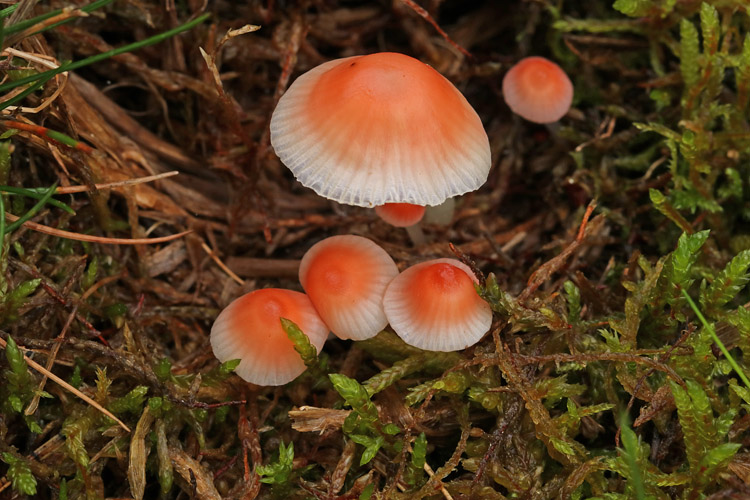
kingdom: Fungi
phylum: Basidiomycota
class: Agaricomycetes
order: Agaricales
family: Mycenaceae
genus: Atheniella
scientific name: Atheniella adonis
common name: rønnerød huesvamp
